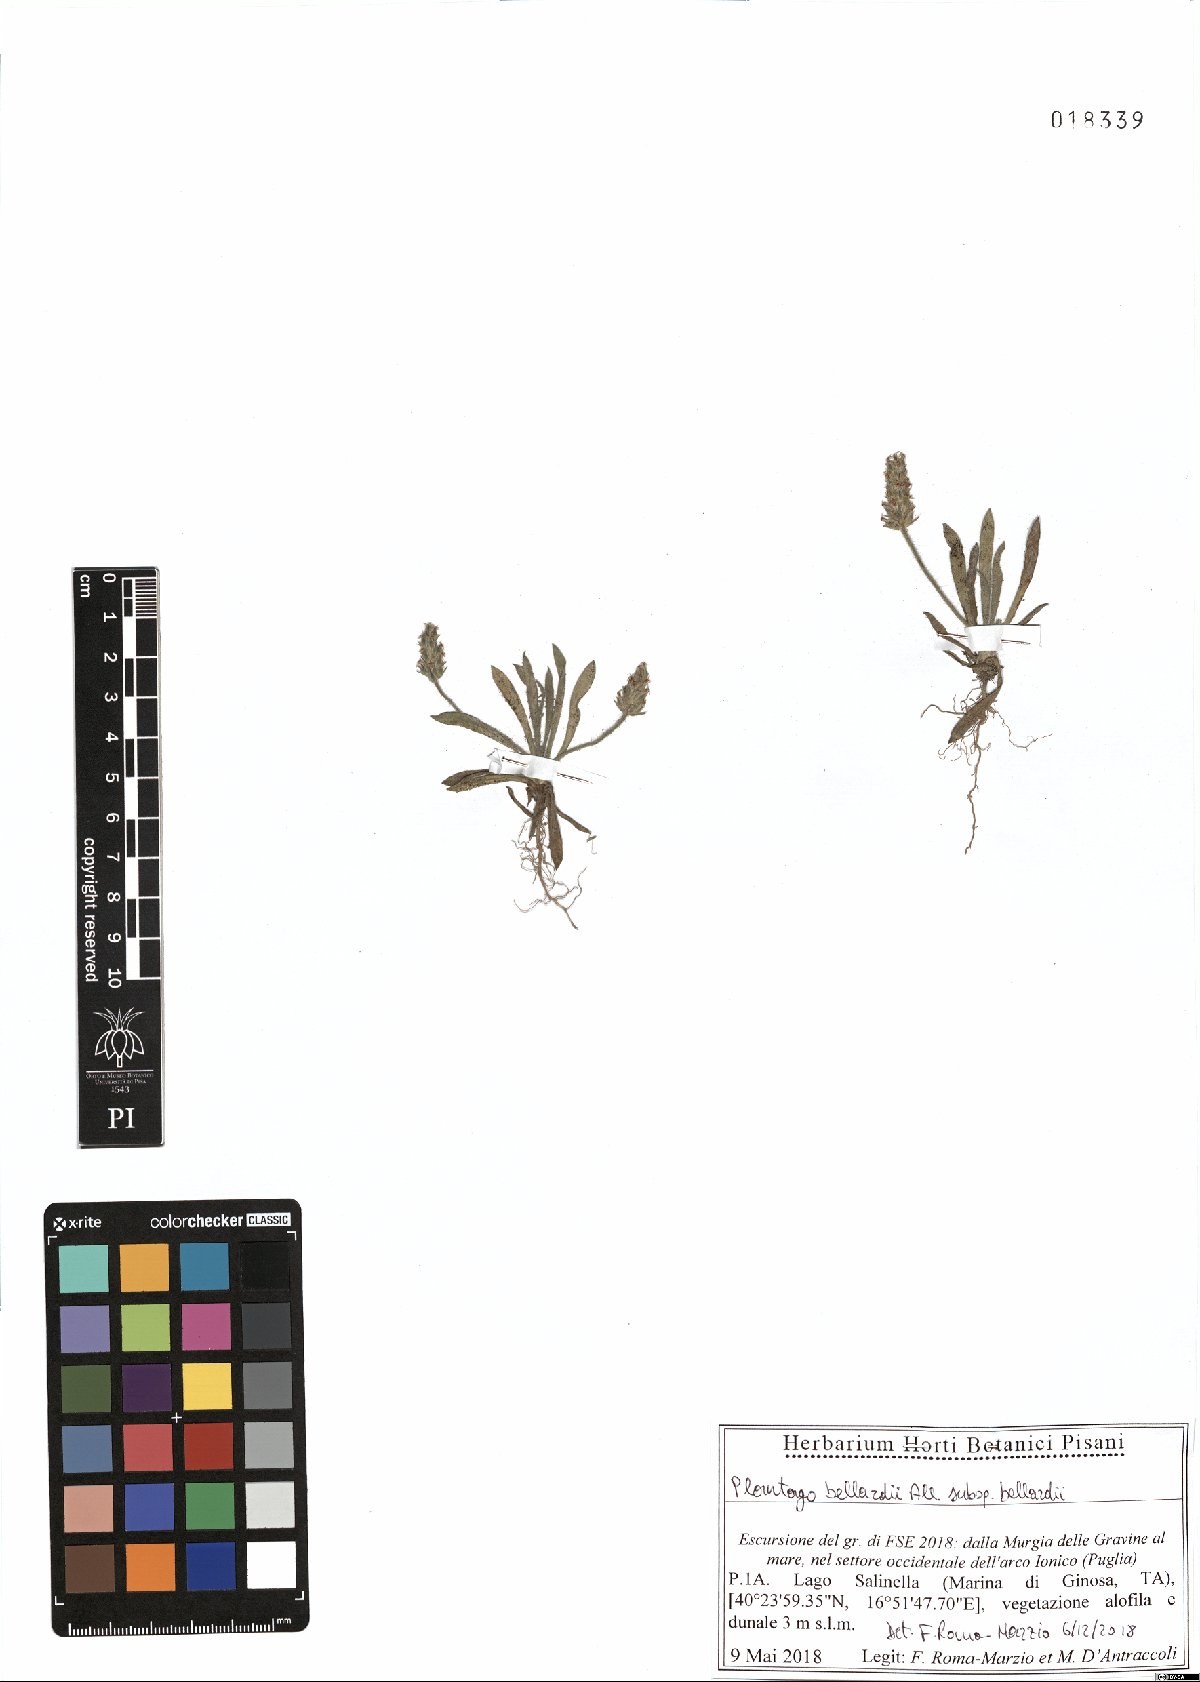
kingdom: Plantae
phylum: Tracheophyta
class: Magnoliopsida
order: Lamiales
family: Plantaginaceae
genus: Plantago
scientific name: Plantago bellardii
